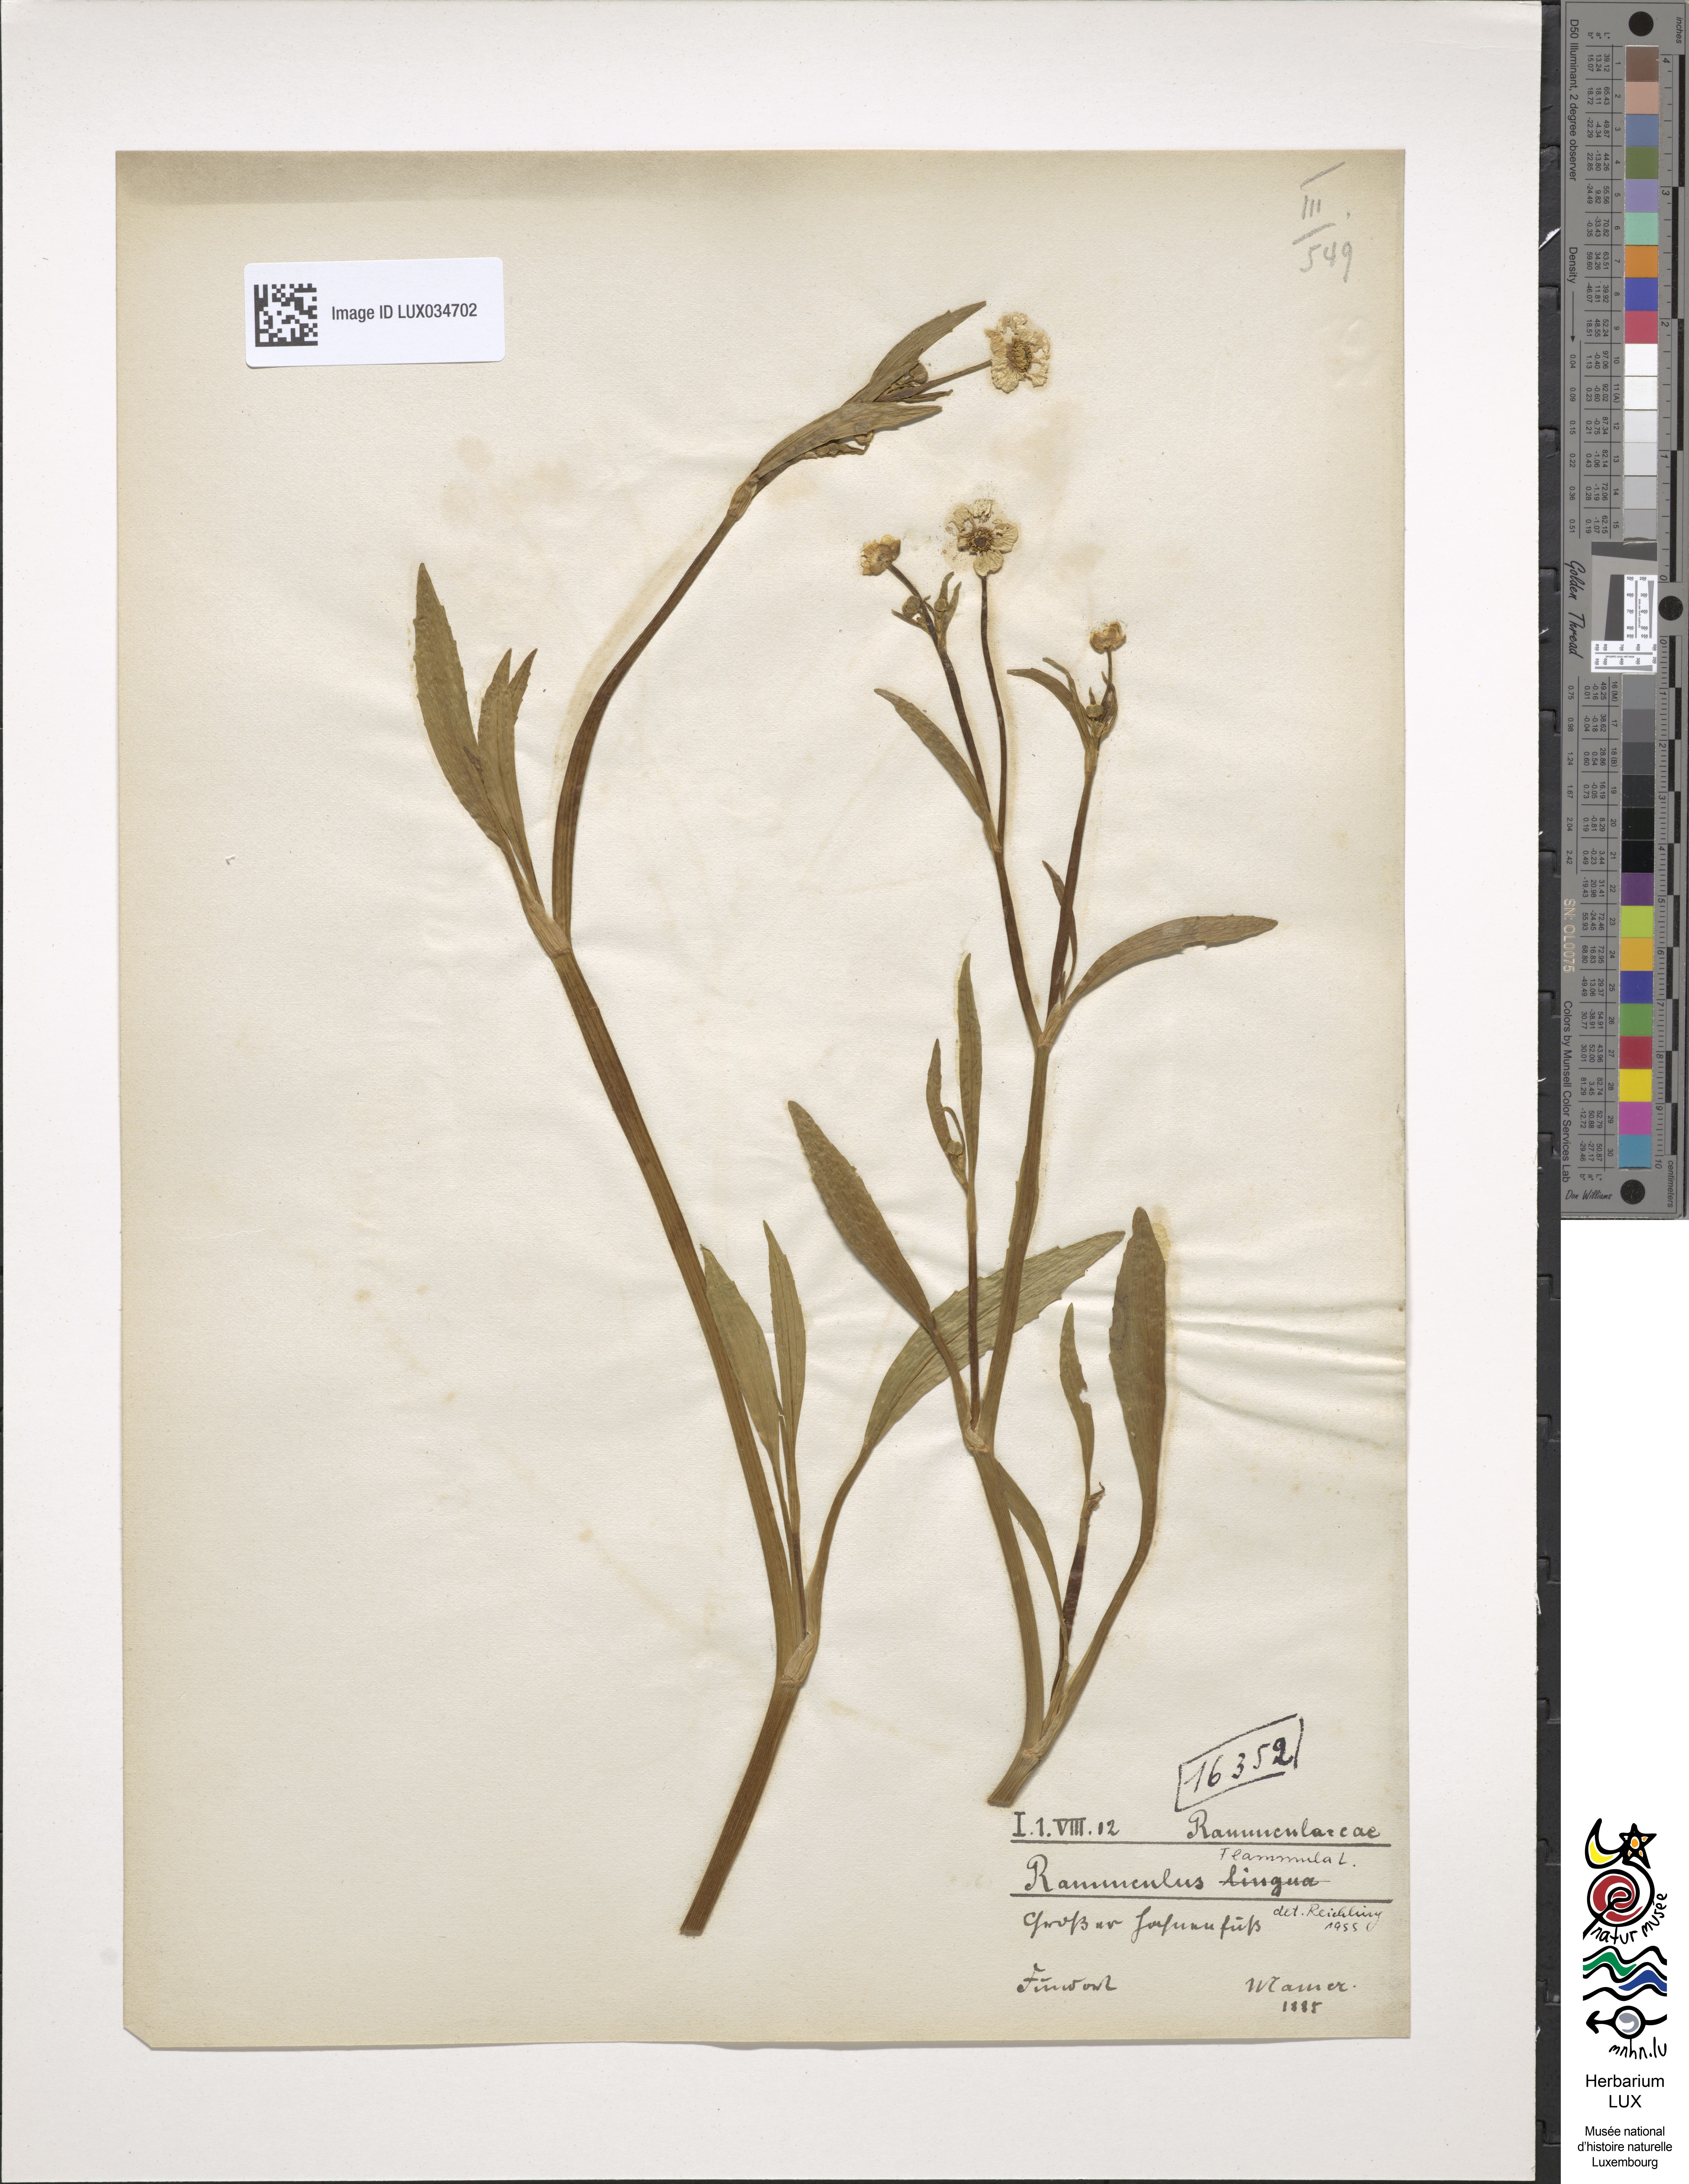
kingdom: Plantae
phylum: Tracheophyta
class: Magnoliopsida
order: Ranunculales
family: Ranunculaceae
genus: Ranunculus
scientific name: Ranunculus lingua
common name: Greater spearwort
